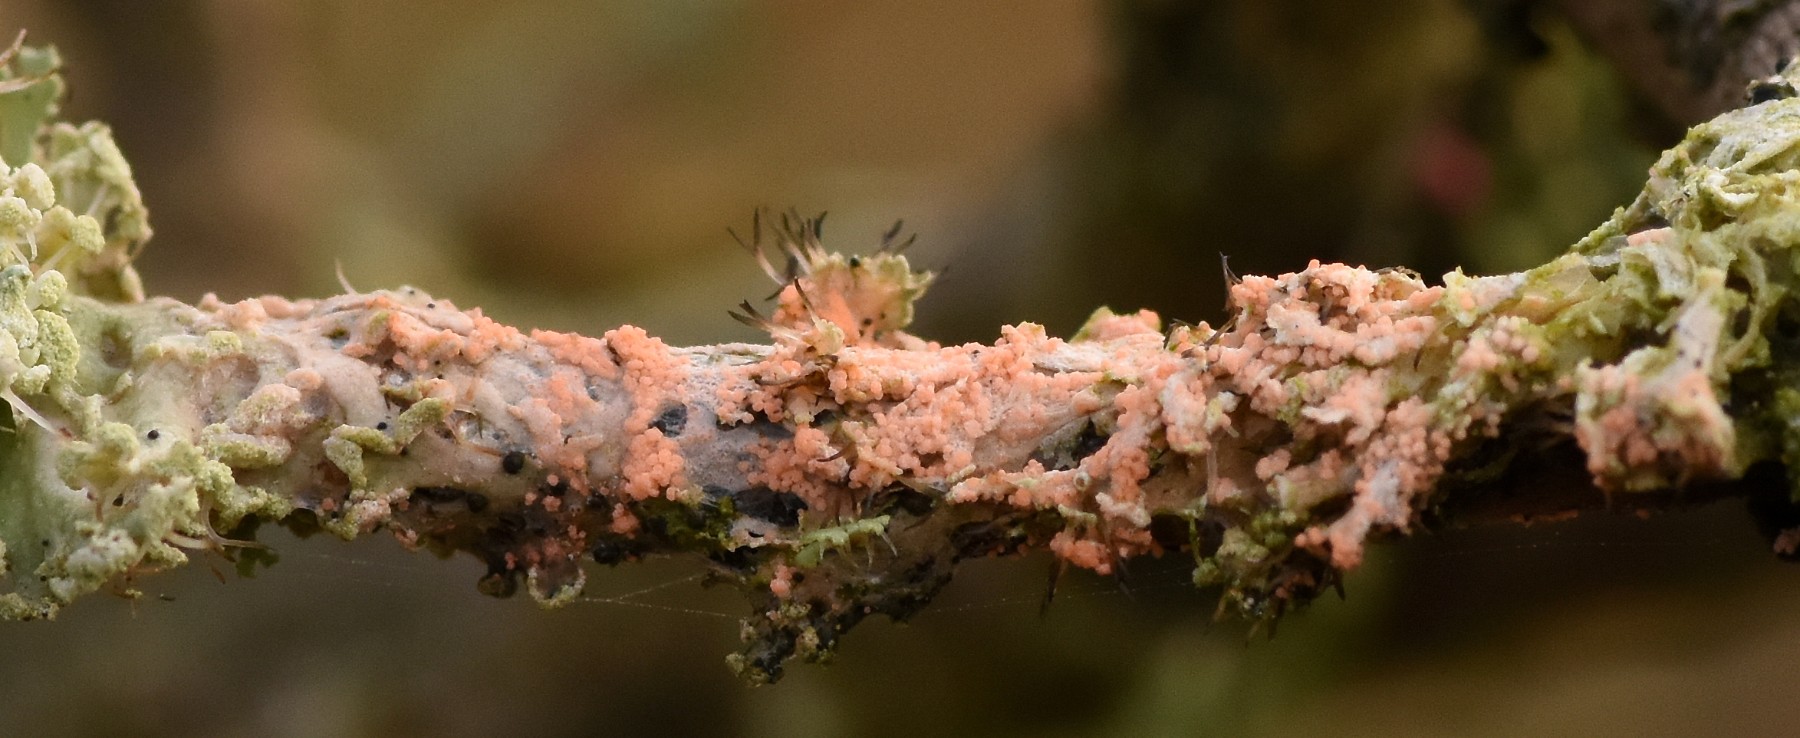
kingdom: Fungi
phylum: Basidiomycota
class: Agaricomycetes
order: Corticiales
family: Corticiaceae
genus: Erythricium
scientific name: Erythricium aurantiacum
